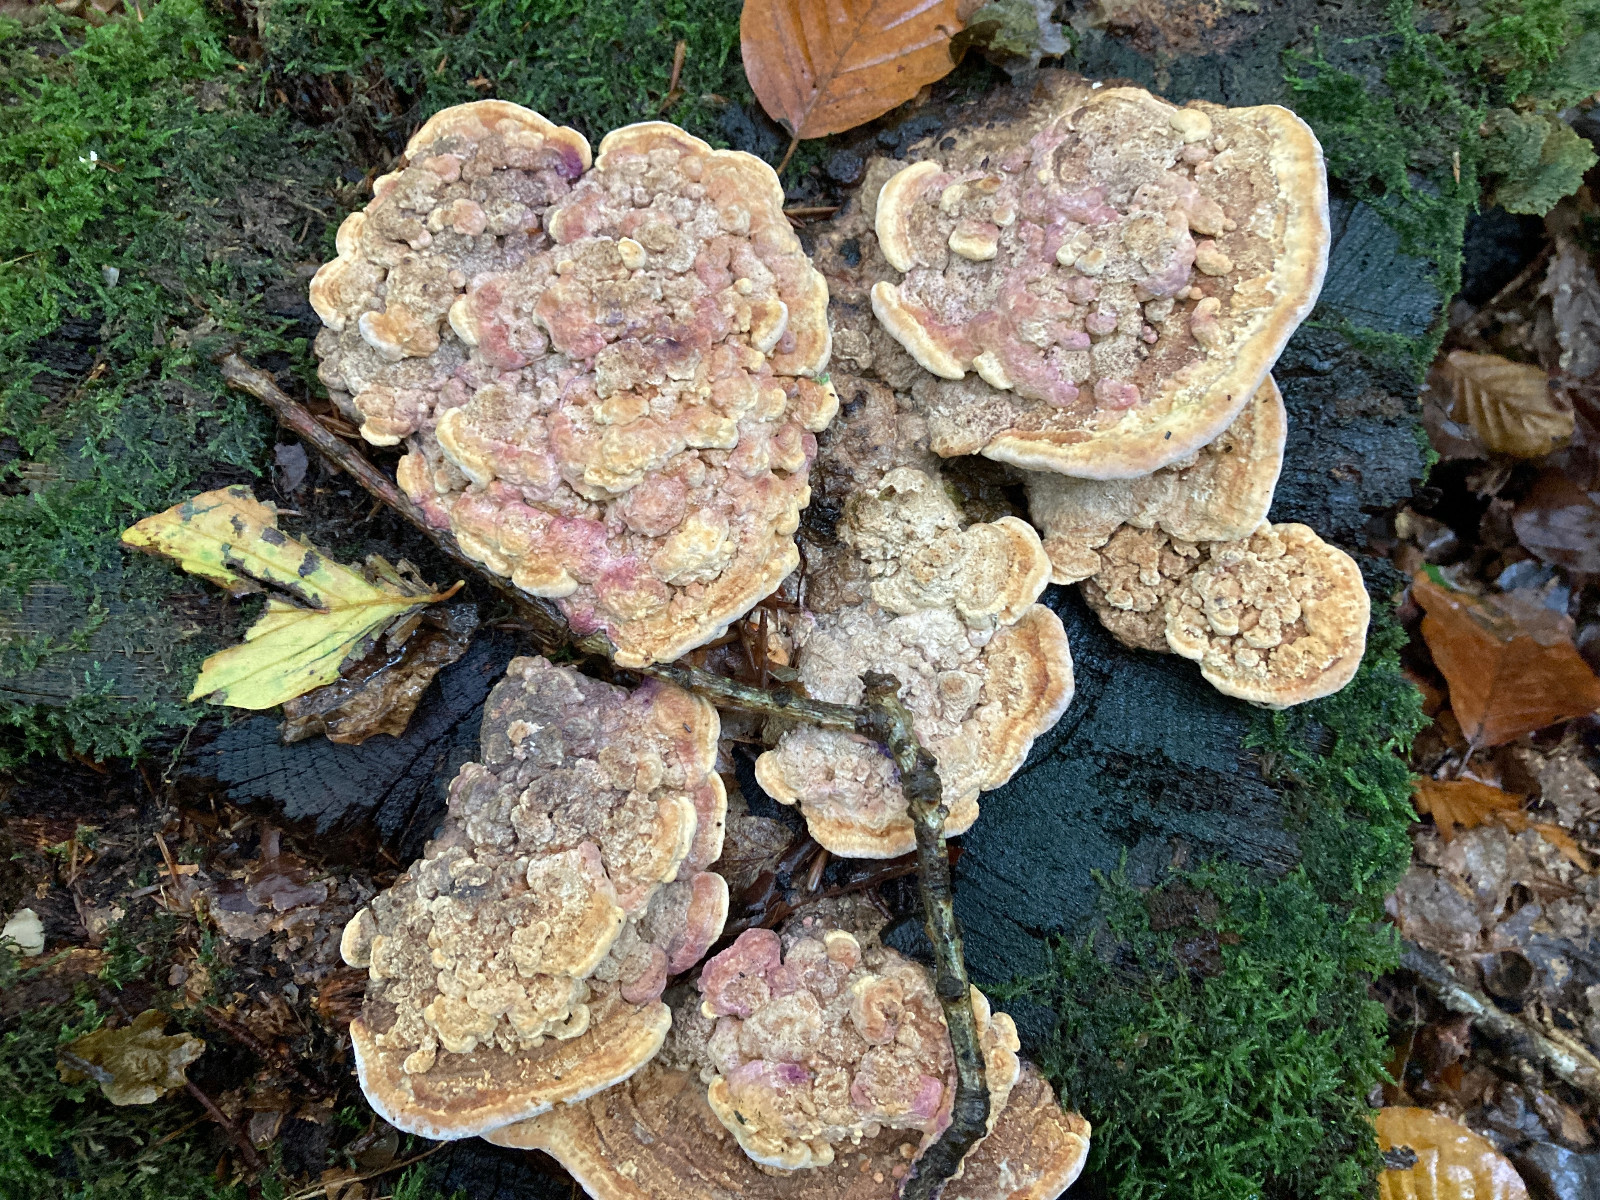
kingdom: Fungi
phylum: Basidiomycota
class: Agaricomycetes
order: Polyporales
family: Fomitopsidaceae
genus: Daedalea
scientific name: Daedalea quercina
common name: ege-labyrintsvamp
